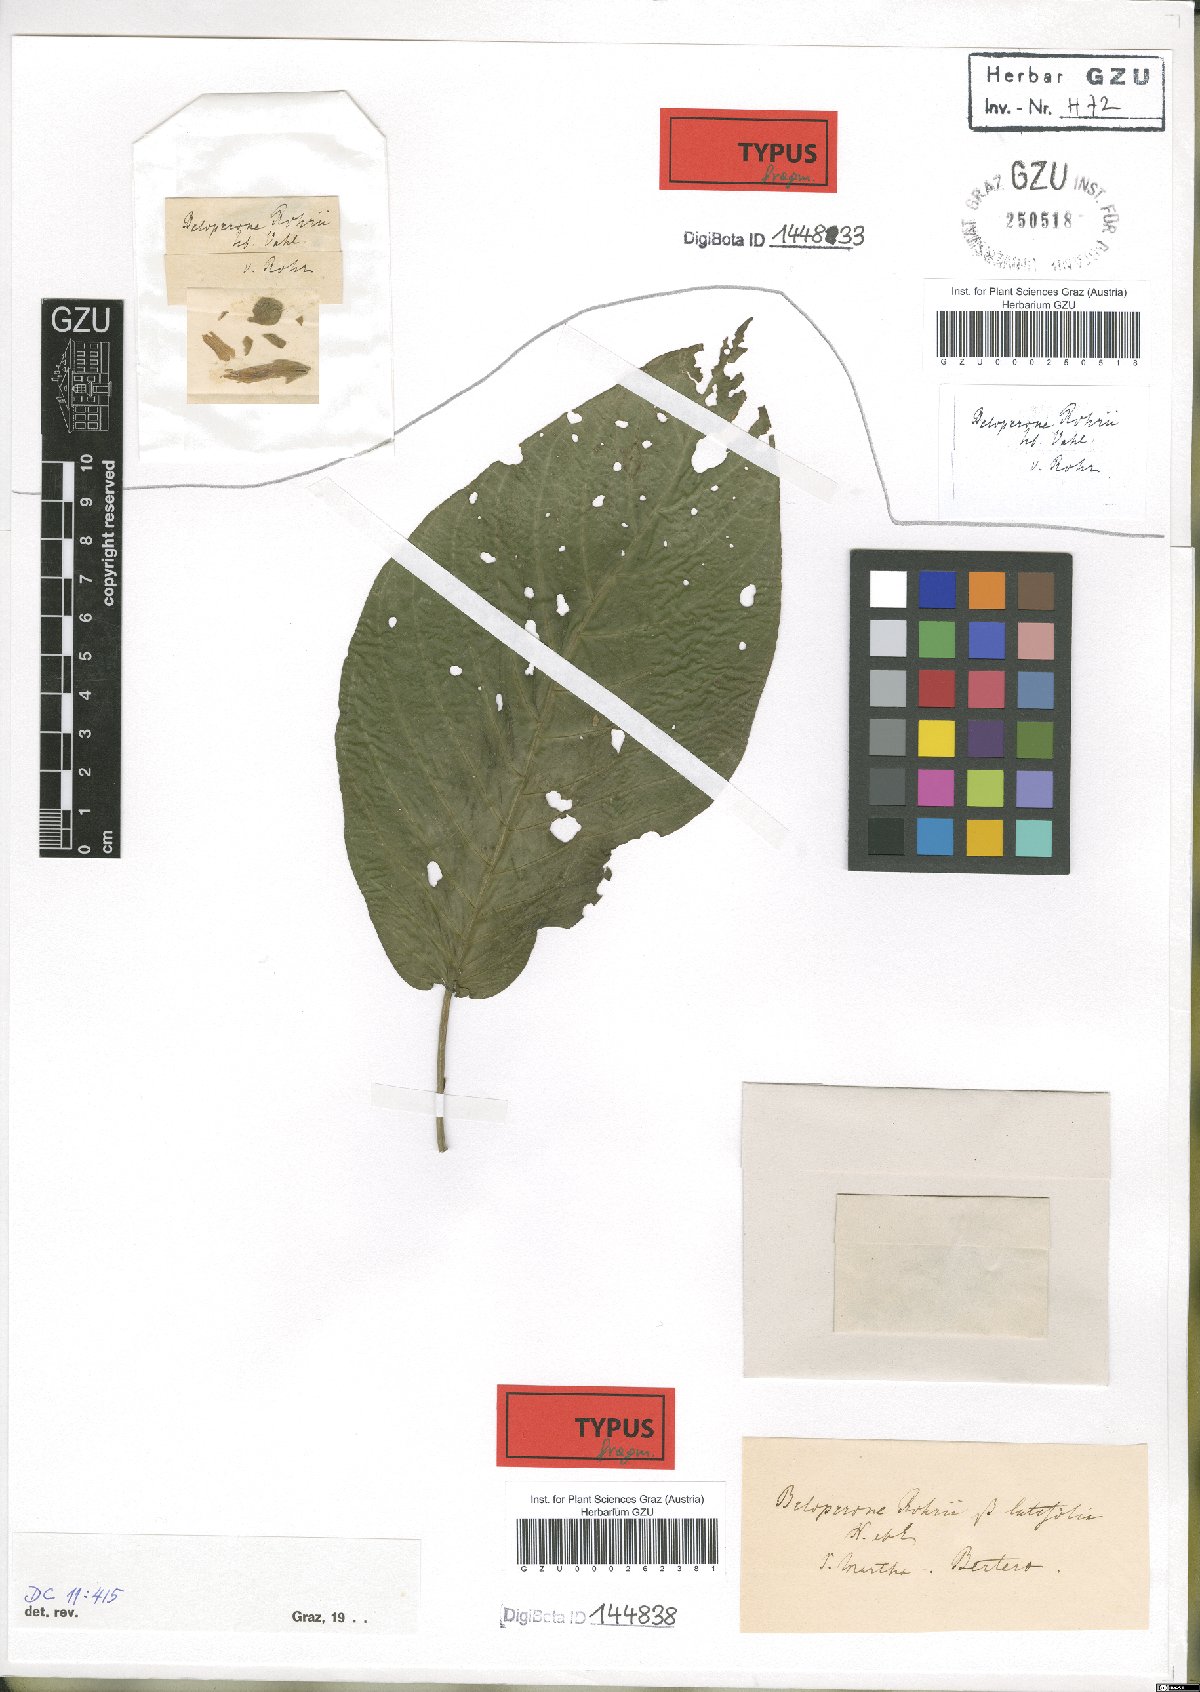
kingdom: Plantae
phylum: Tracheophyta
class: Magnoliopsida
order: Lamiales
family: Acanthaceae
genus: Justicia
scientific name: Justicia rohrii
